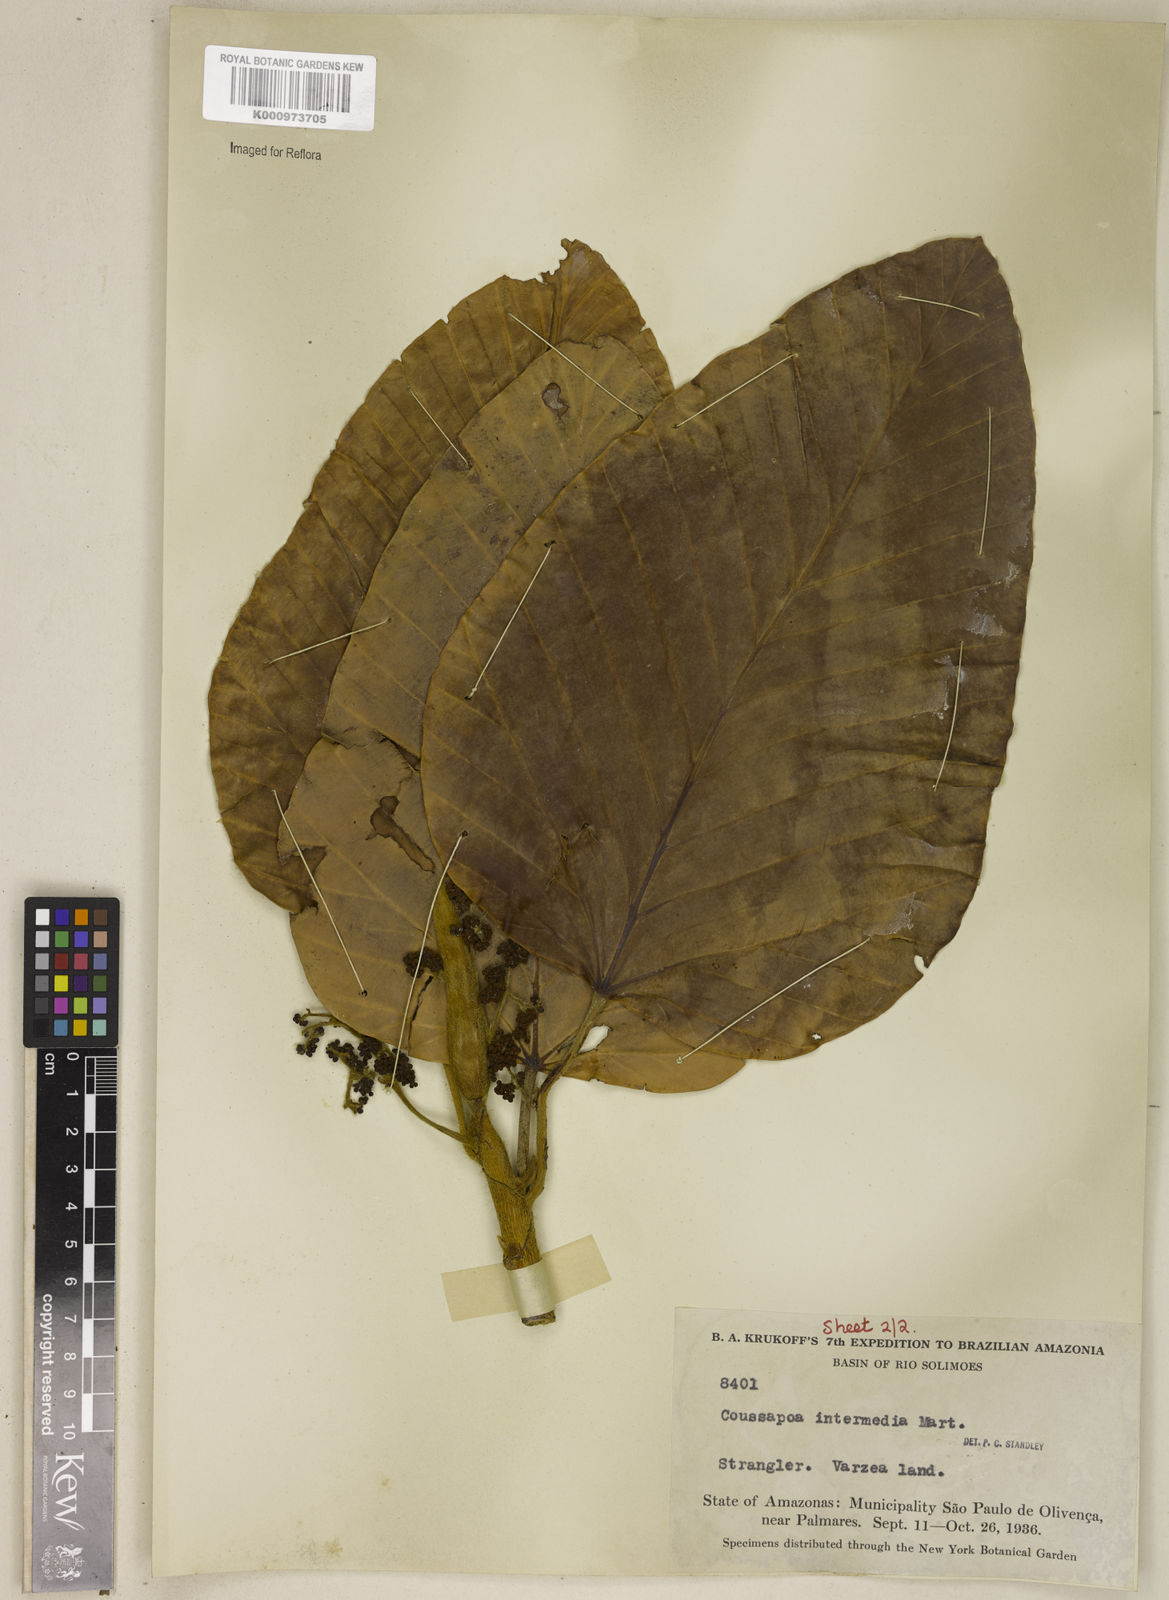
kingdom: Plantae
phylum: Tracheophyta
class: Magnoliopsida
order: Rosales
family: Urticaceae
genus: Coussapoa
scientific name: Coussapoa nitida
